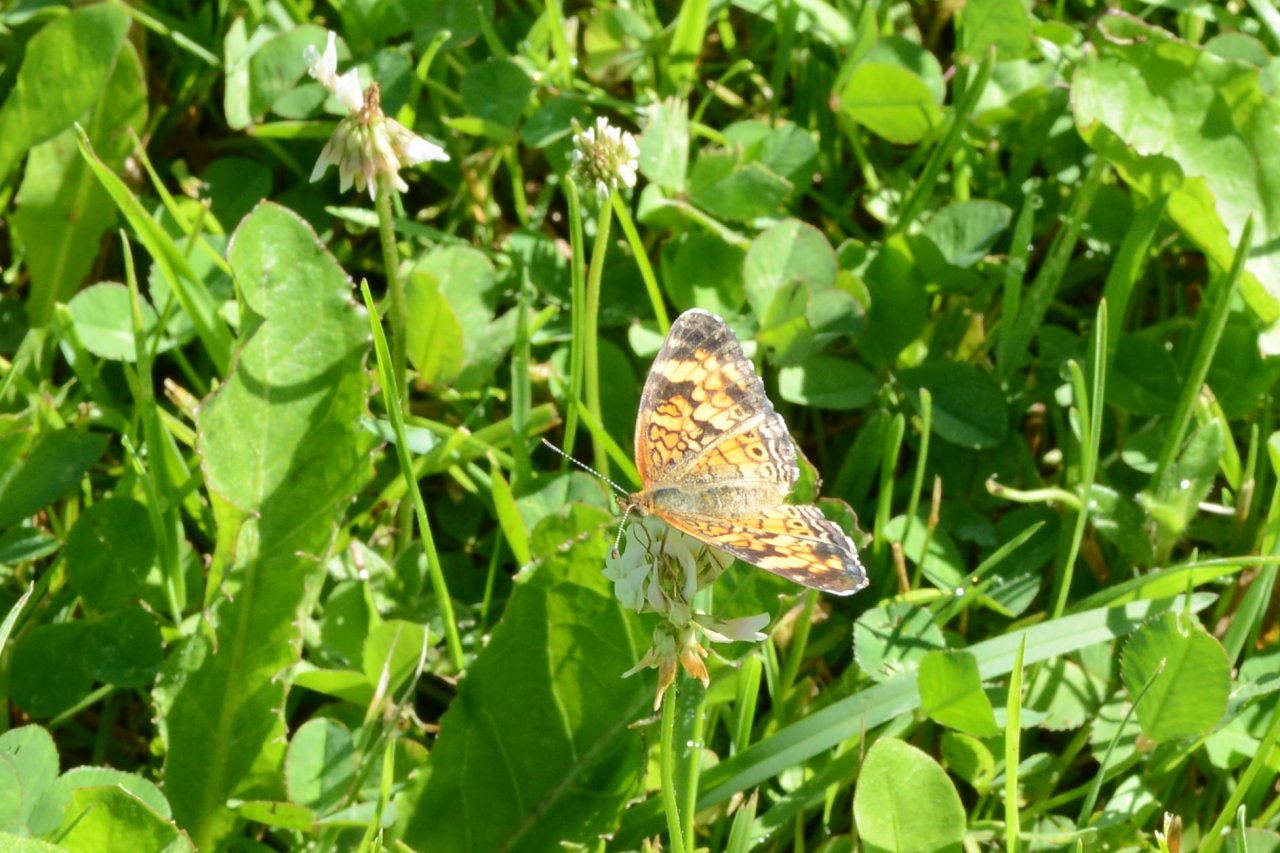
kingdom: Animalia
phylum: Arthropoda
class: Insecta
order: Lepidoptera
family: Nymphalidae
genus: Phyciodes
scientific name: Phyciodes tharos
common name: Northern Crescent
